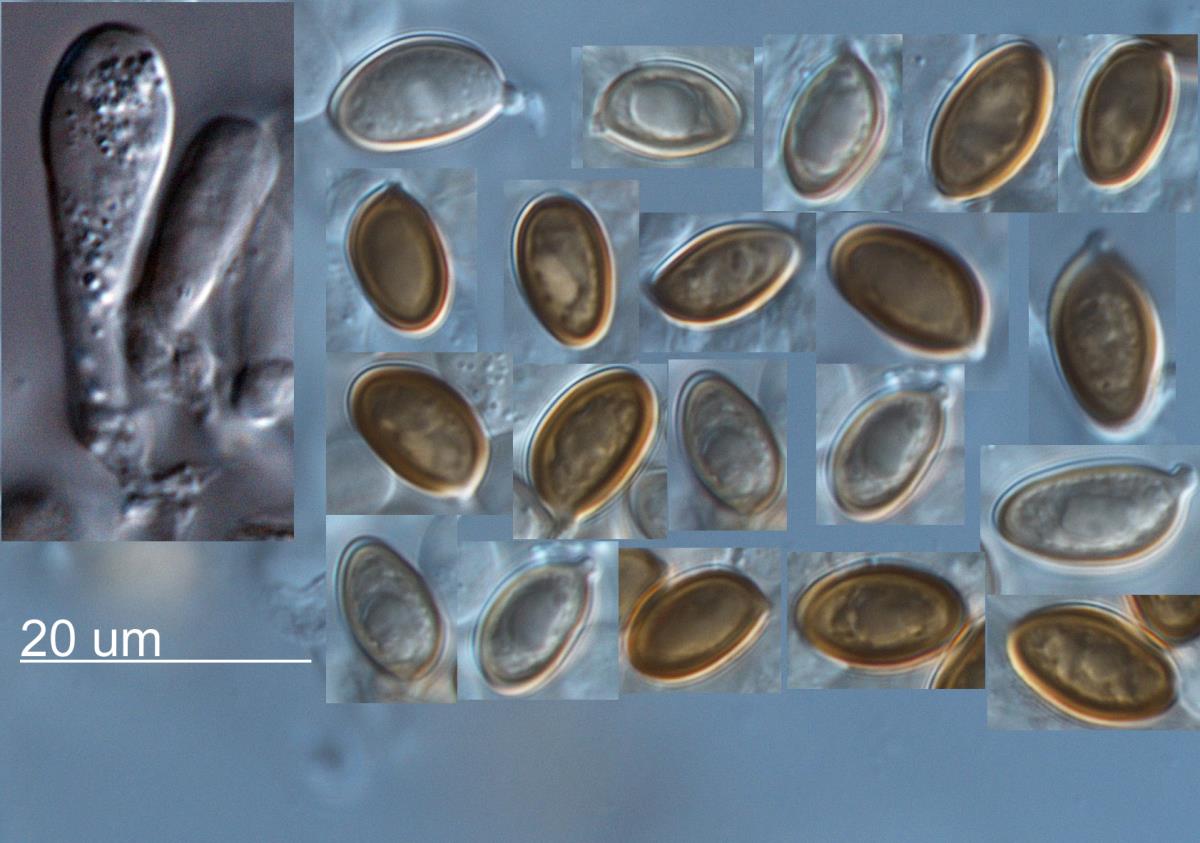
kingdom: Fungi
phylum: Basidiomycota
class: Agaricomycetes
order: Agaricales
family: Agaricaceae
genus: Agaricus
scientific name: Agaricus crocodilinus
